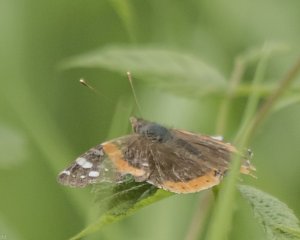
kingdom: Animalia
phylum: Arthropoda
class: Insecta
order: Lepidoptera
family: Nymphalidae
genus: Vanessa
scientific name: Vanessa atalanta
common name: Red Admiral
